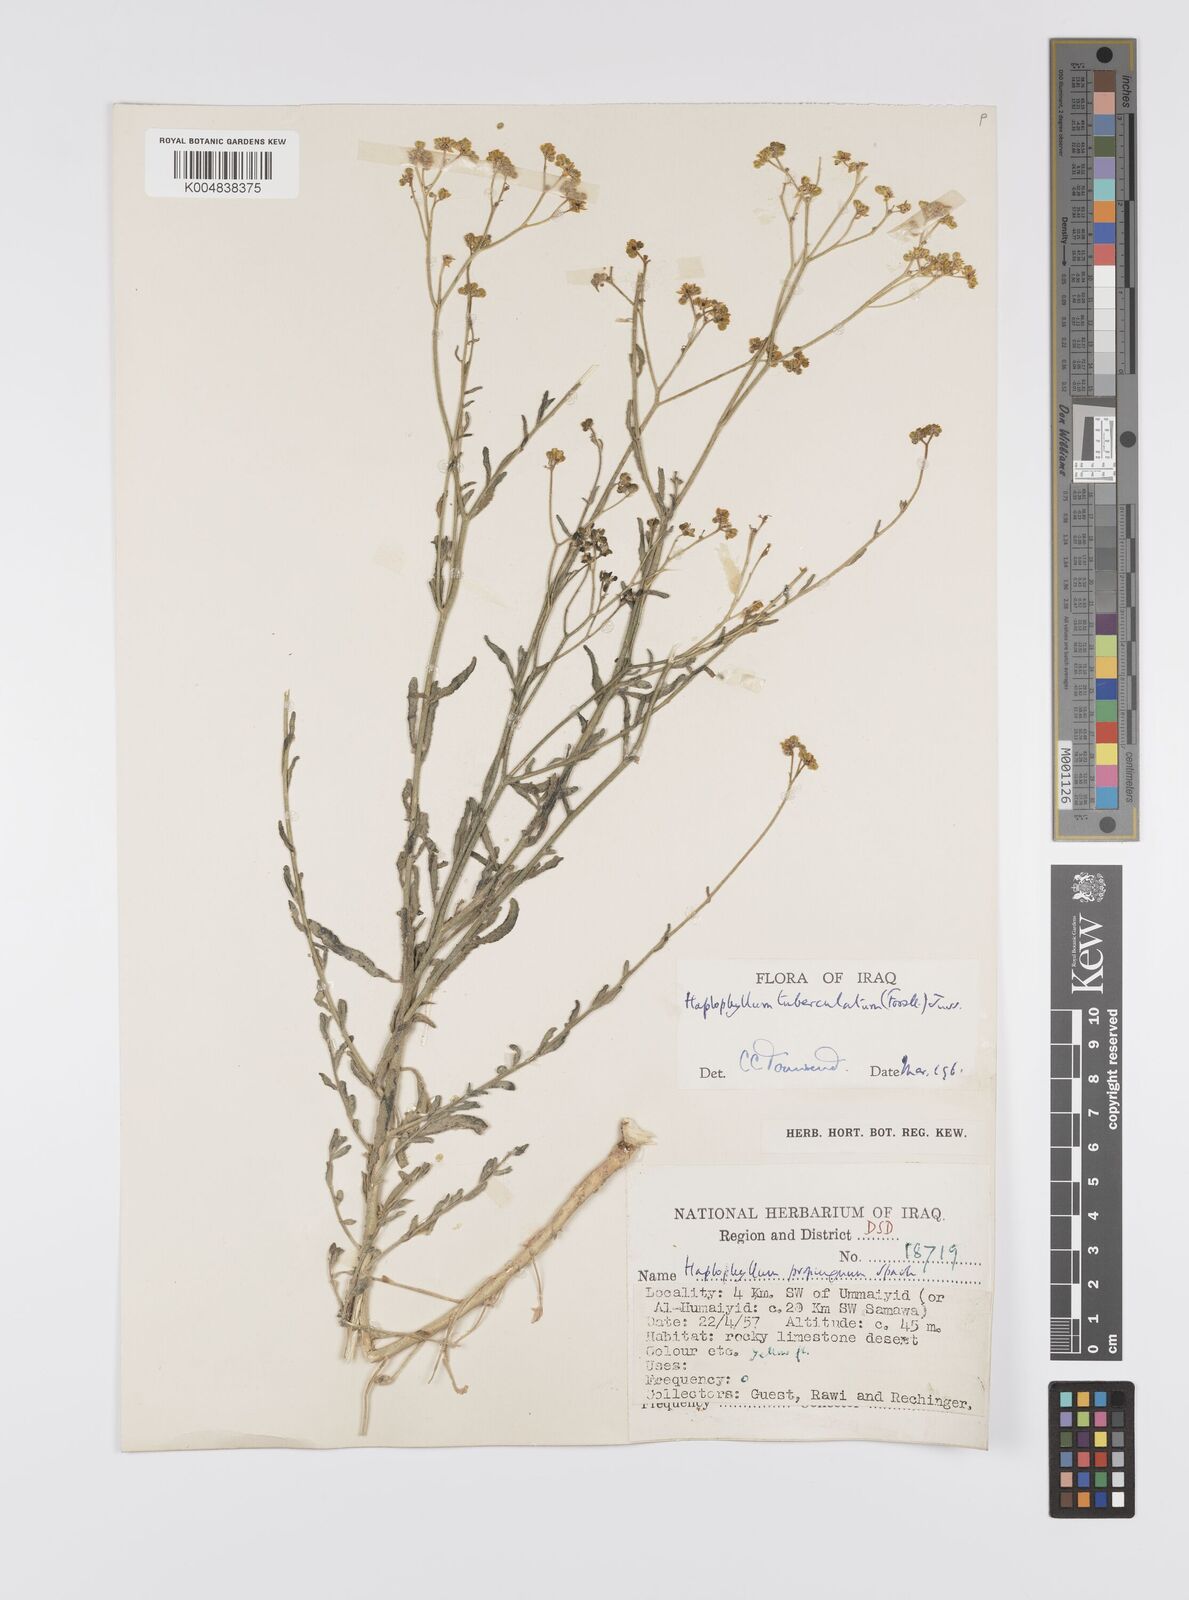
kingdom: Plantae
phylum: Tracheophyta
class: Magnoliopsida
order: Sapindales
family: Rutaceae
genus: Haplophyllum
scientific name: Haplophyllum tuberculatum
